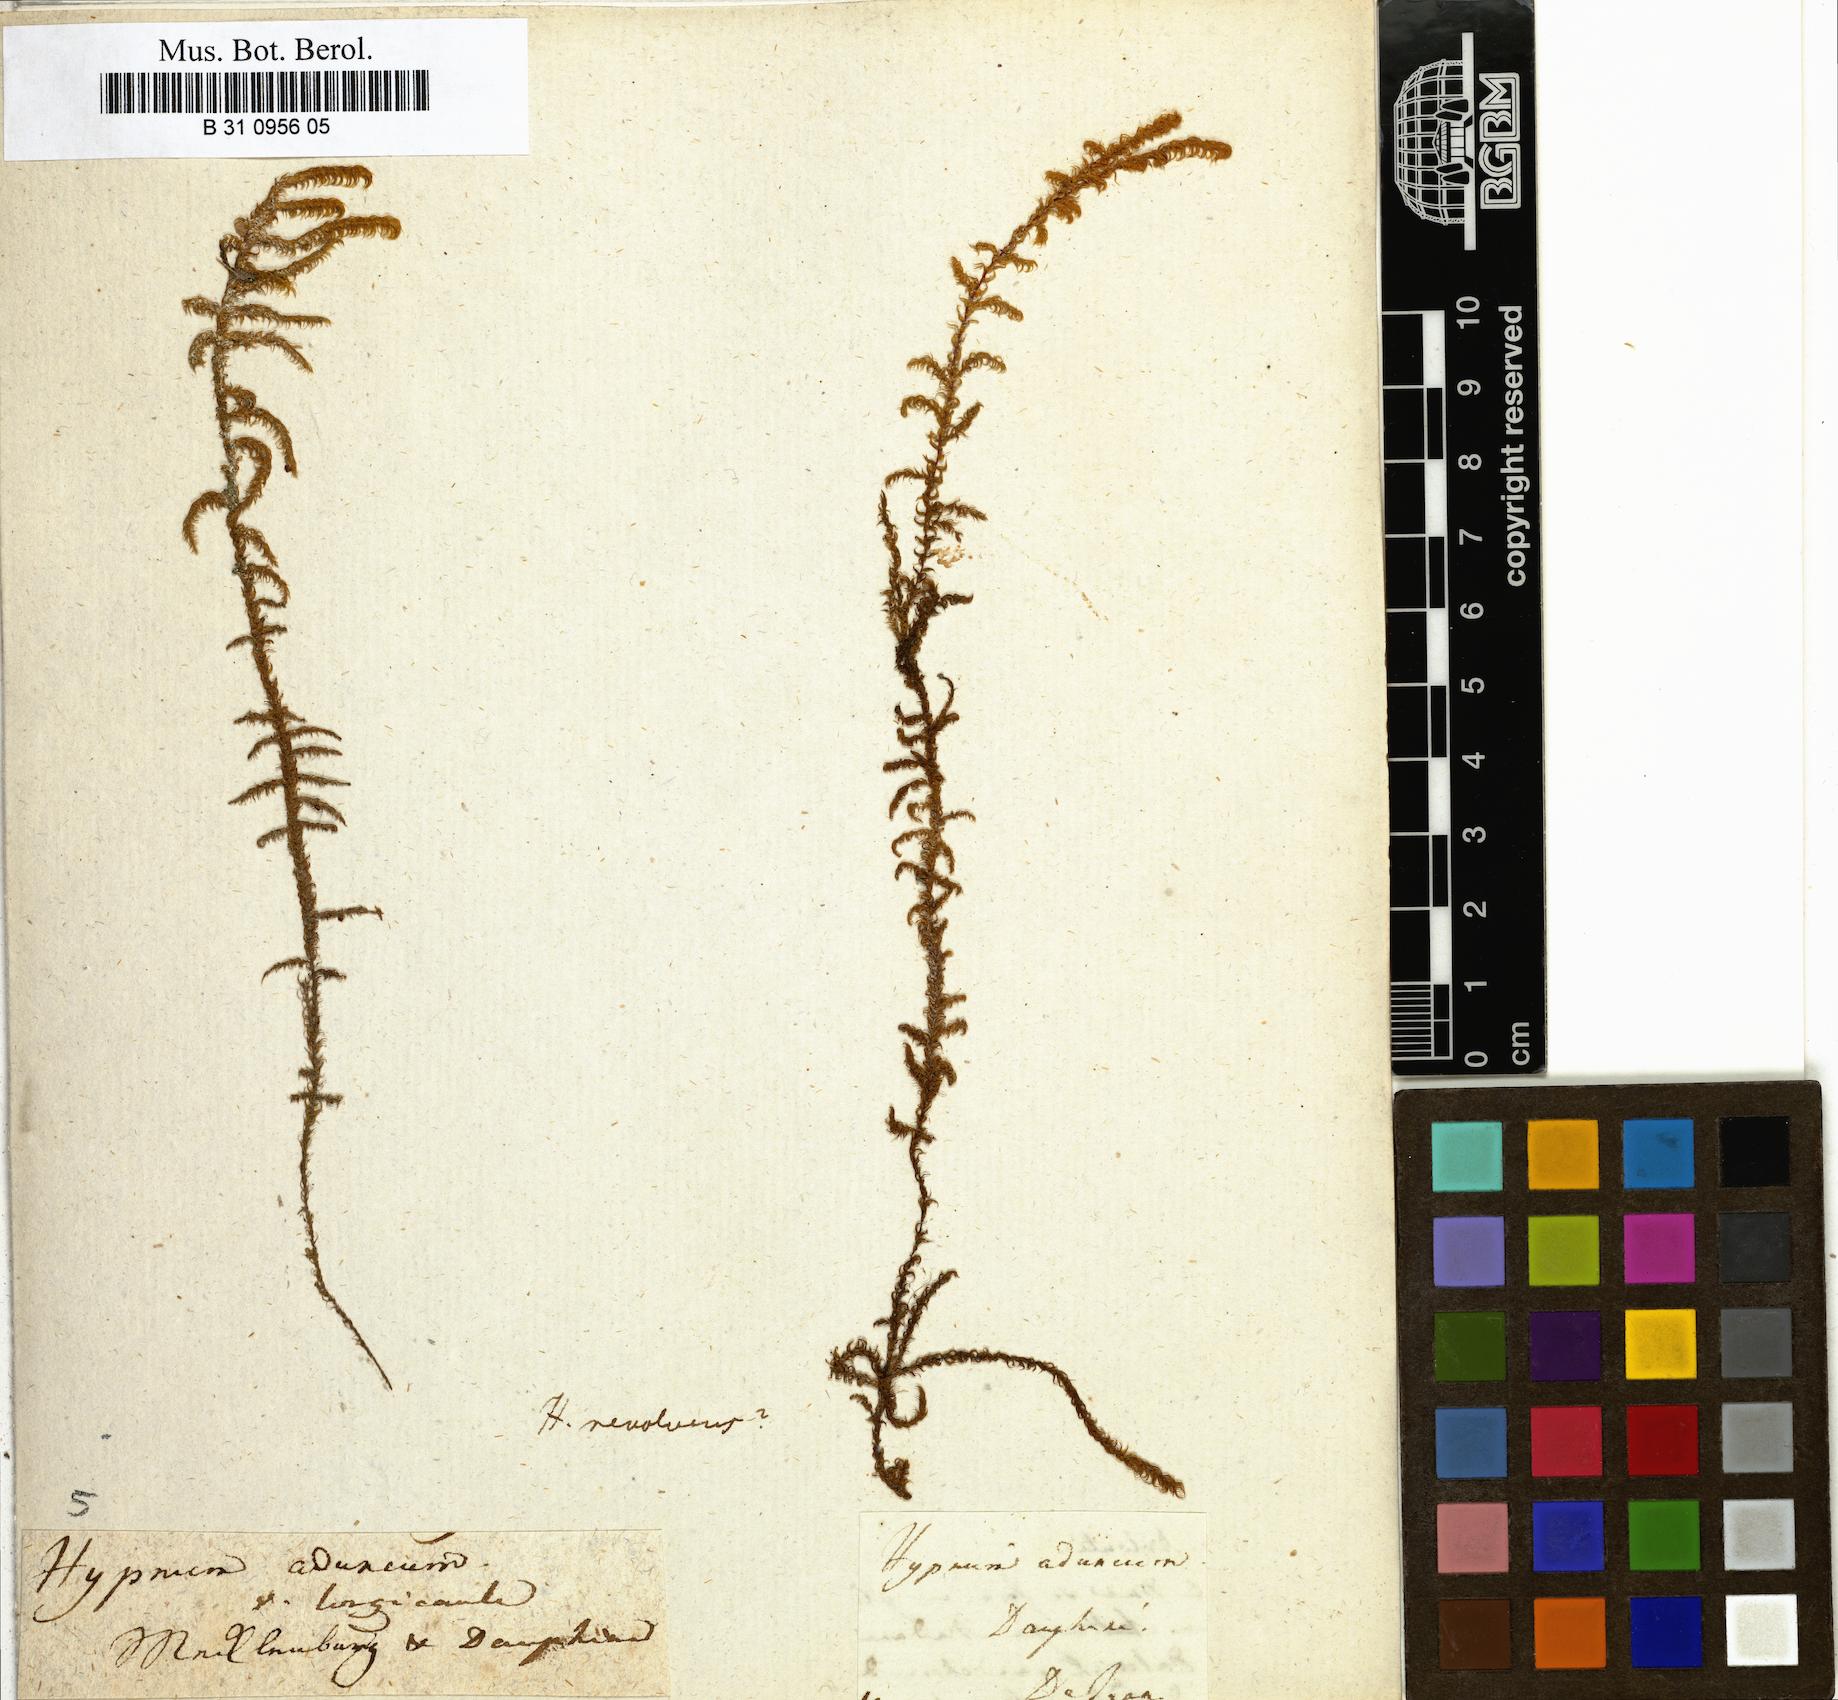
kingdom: Plantae
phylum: Bryophyta
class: Bryopsida
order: Hypnales
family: Amblystegiaceae
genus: Drepanocladus
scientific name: Drepanocladus aduncus
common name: Knieff's hook moss
